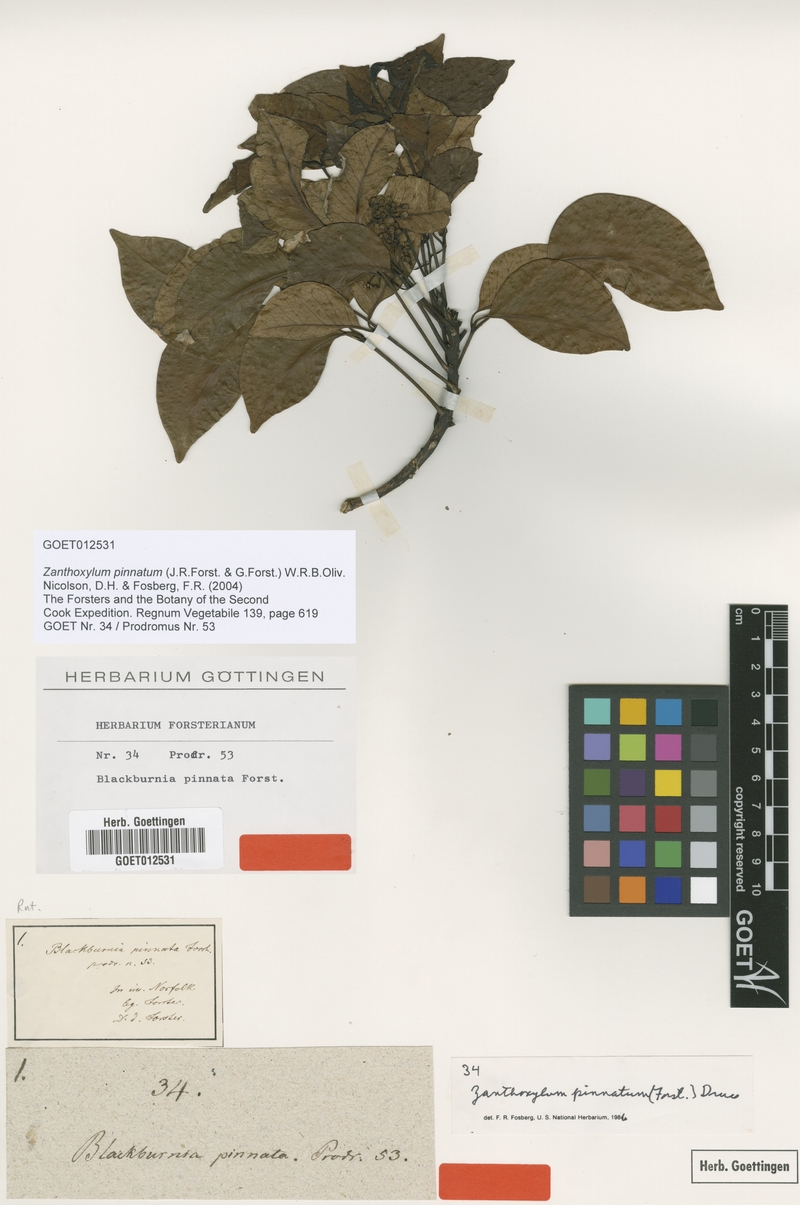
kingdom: Plantae
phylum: Tracheophyta
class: Magnoliopsida
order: Sapindales
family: Rutaceae
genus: Zanthoxylum
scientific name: Zanthoxylum pinnatum
